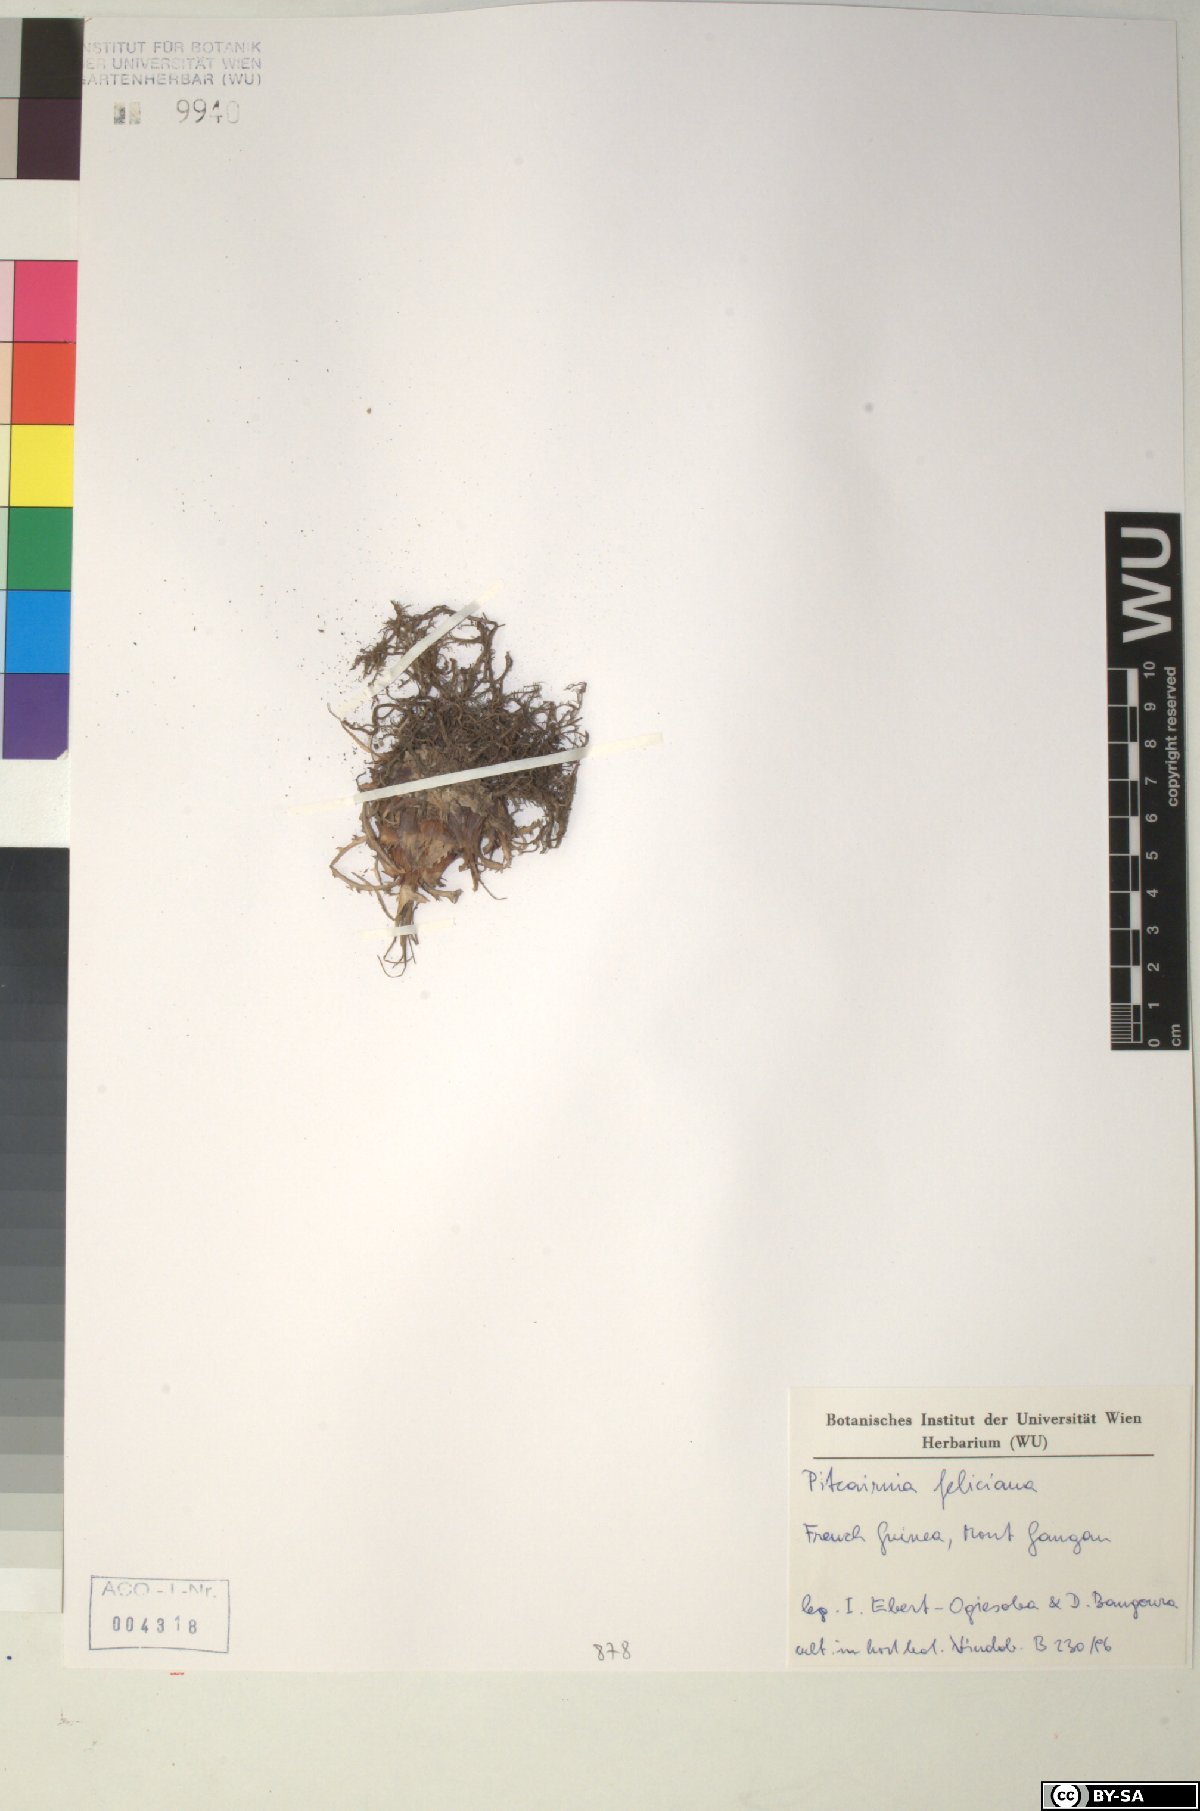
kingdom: Plantae
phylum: Tracheophyta
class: Liliopsida
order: Poales
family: Bromeliaceae
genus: Pitcairnia
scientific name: Pitcairnia feliciana
